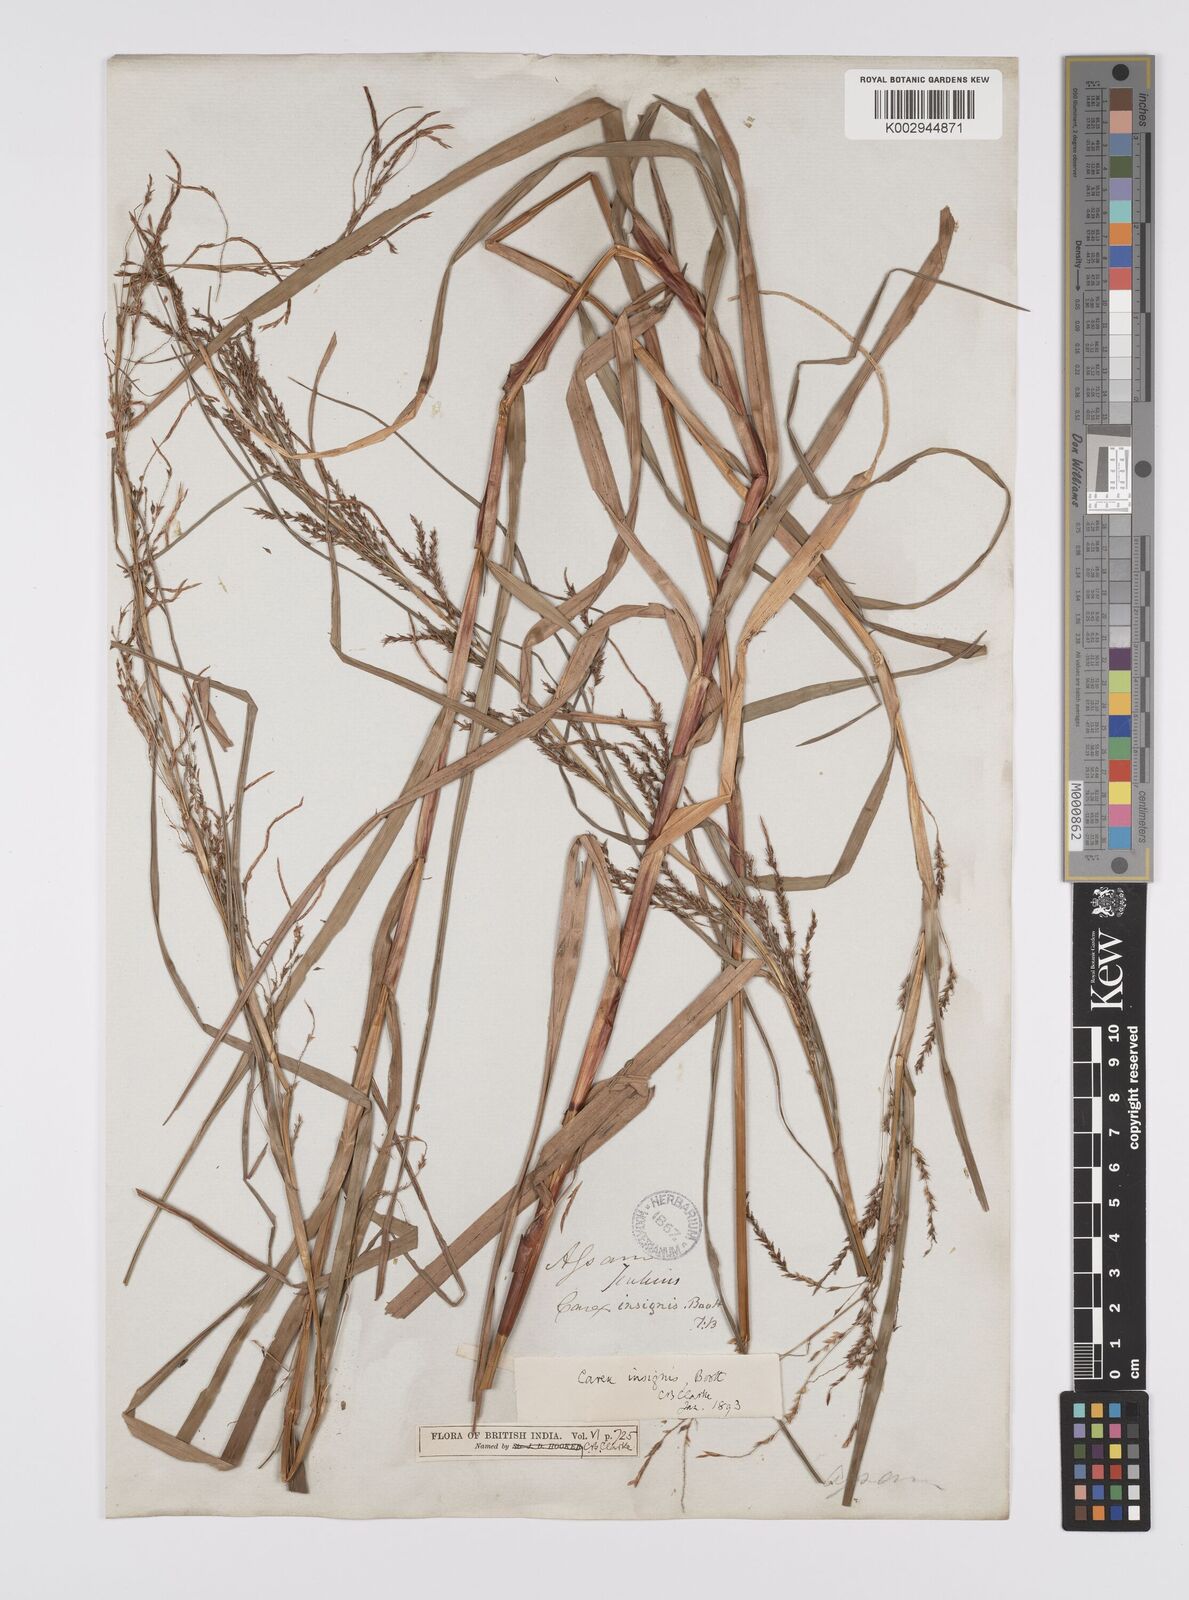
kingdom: Plantae
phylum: Tracheophyta
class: Liliopsida
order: Poales
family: Cyperaceae
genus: Carex
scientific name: Carex insignis
